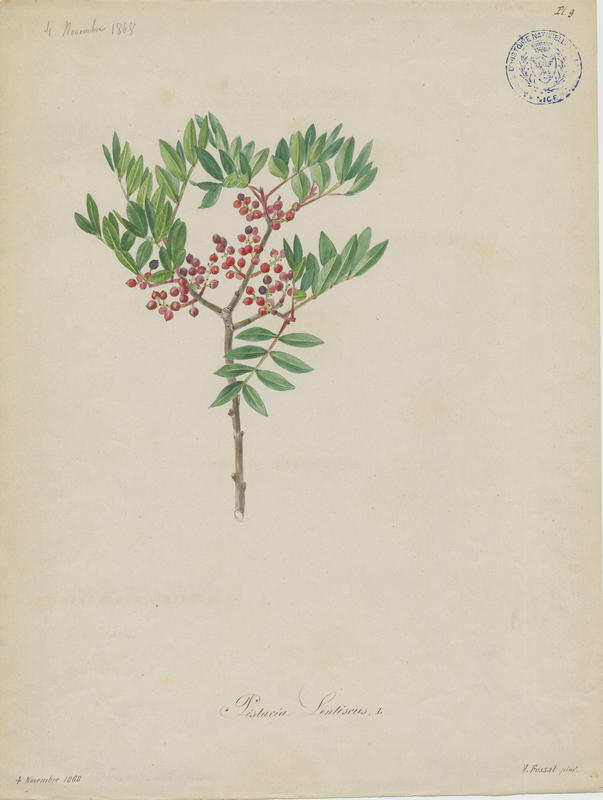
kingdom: Plantae
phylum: Tracheophyta
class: Magnoliopsida
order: Sapindales
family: Anacardiaceae
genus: Pistacia
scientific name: Pistacia lentiscus
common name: Lentisk
